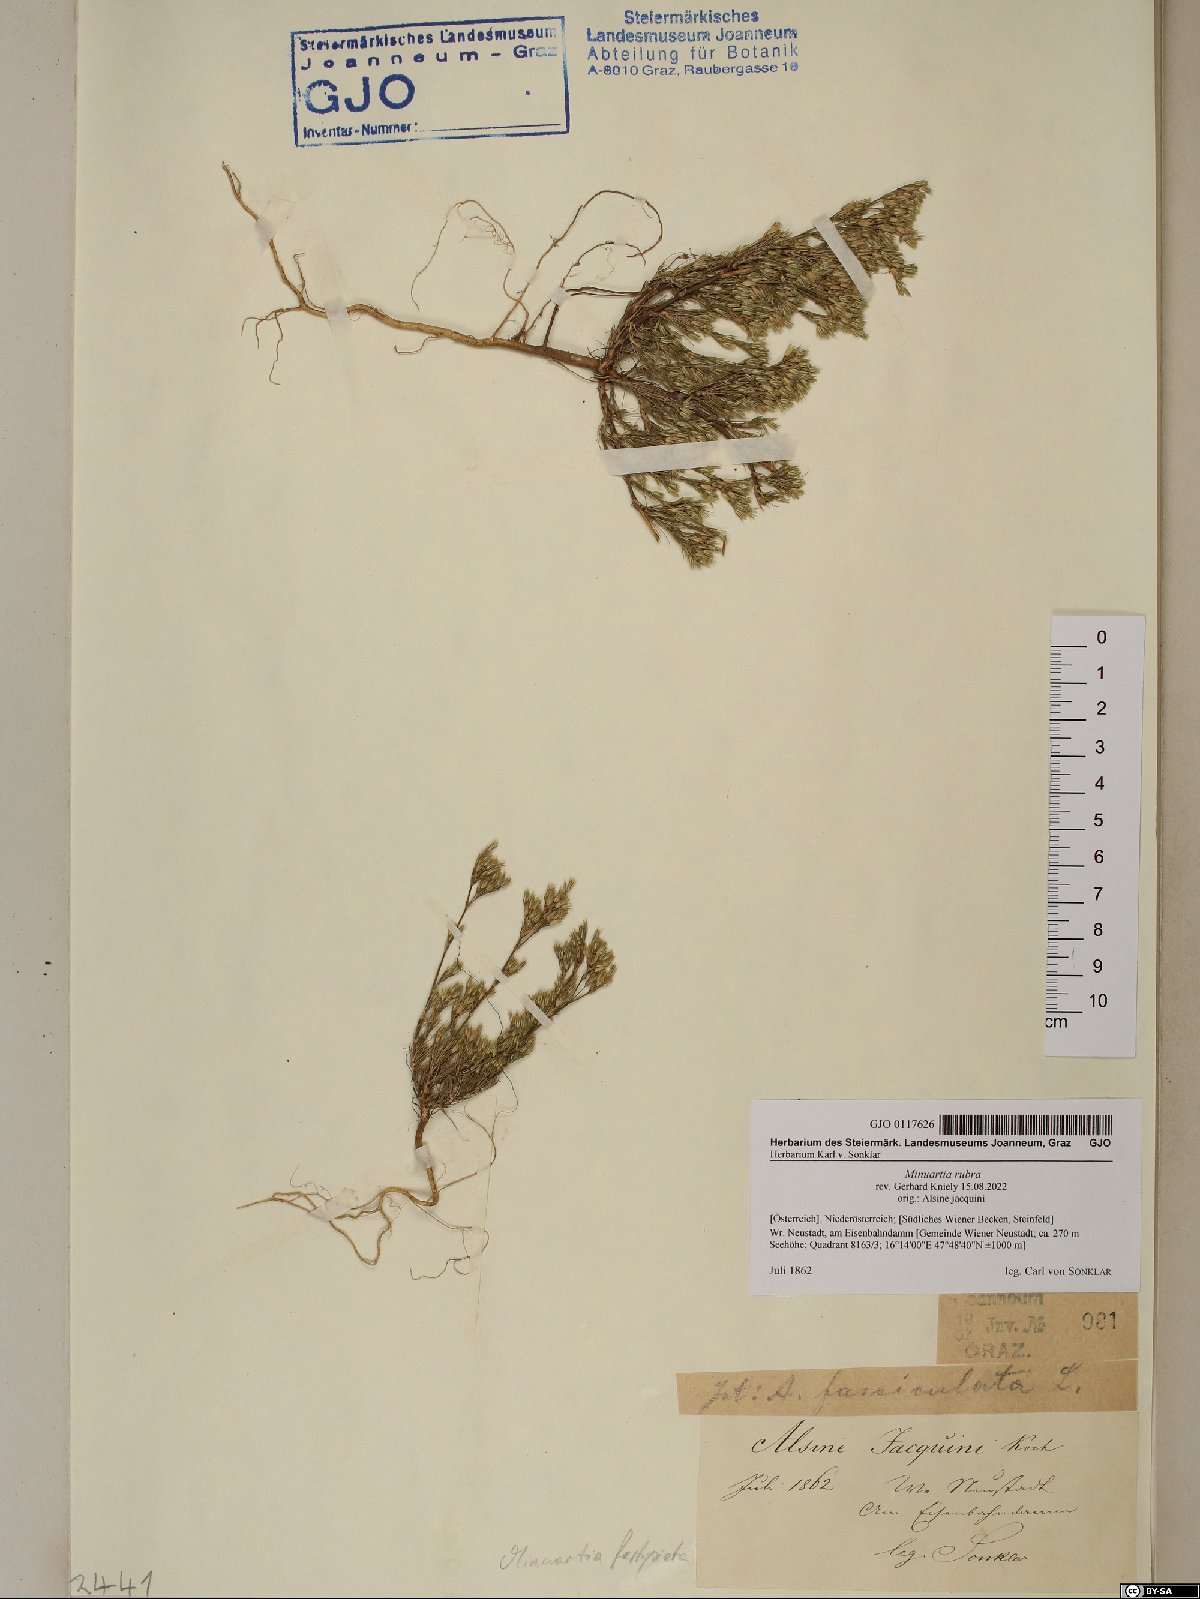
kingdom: Plantae
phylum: Tracheophyta
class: Magnoliopsida
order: Caryophyllales
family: Caryophyllaceae
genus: Minuartia
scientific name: Minuartia mucronata
